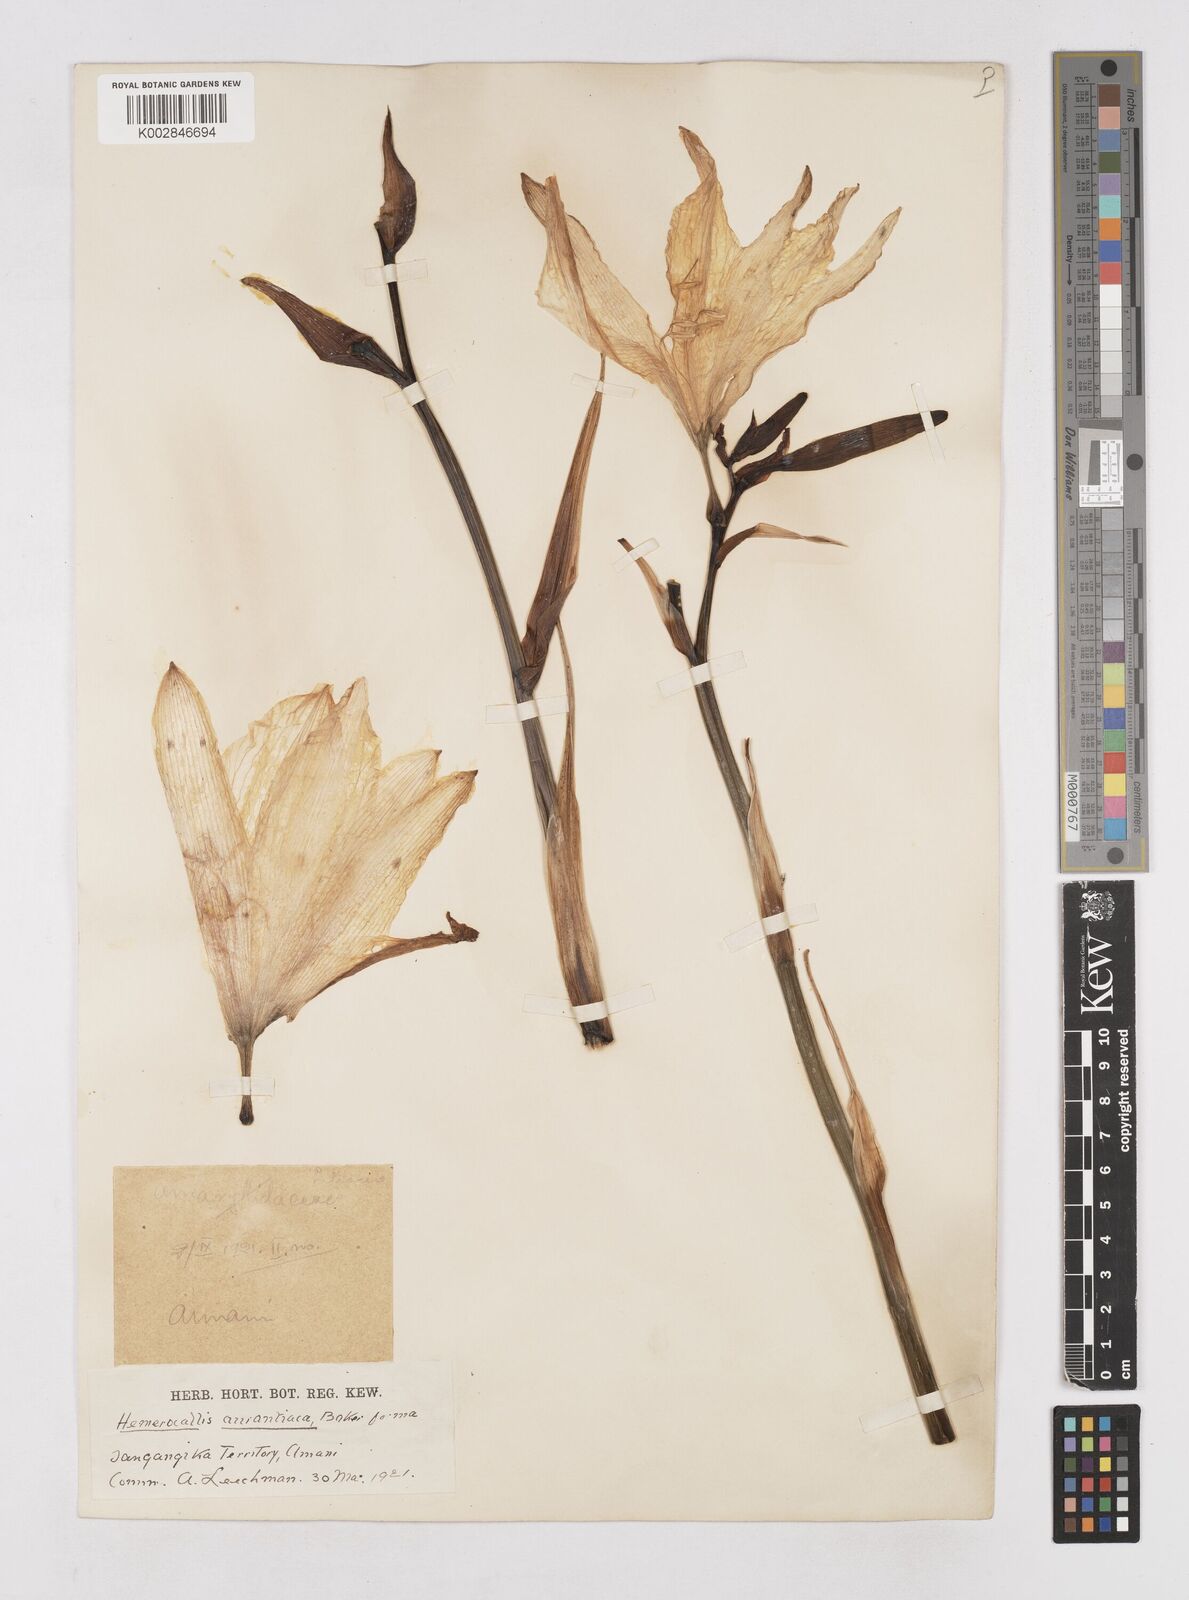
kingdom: Plantae
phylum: Tracheophyta
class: Liliopsida
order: Asparagales
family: Asphodelaceae
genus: Hemerocallis
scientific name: Hemerocallis fulva
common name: Orange day-lily
